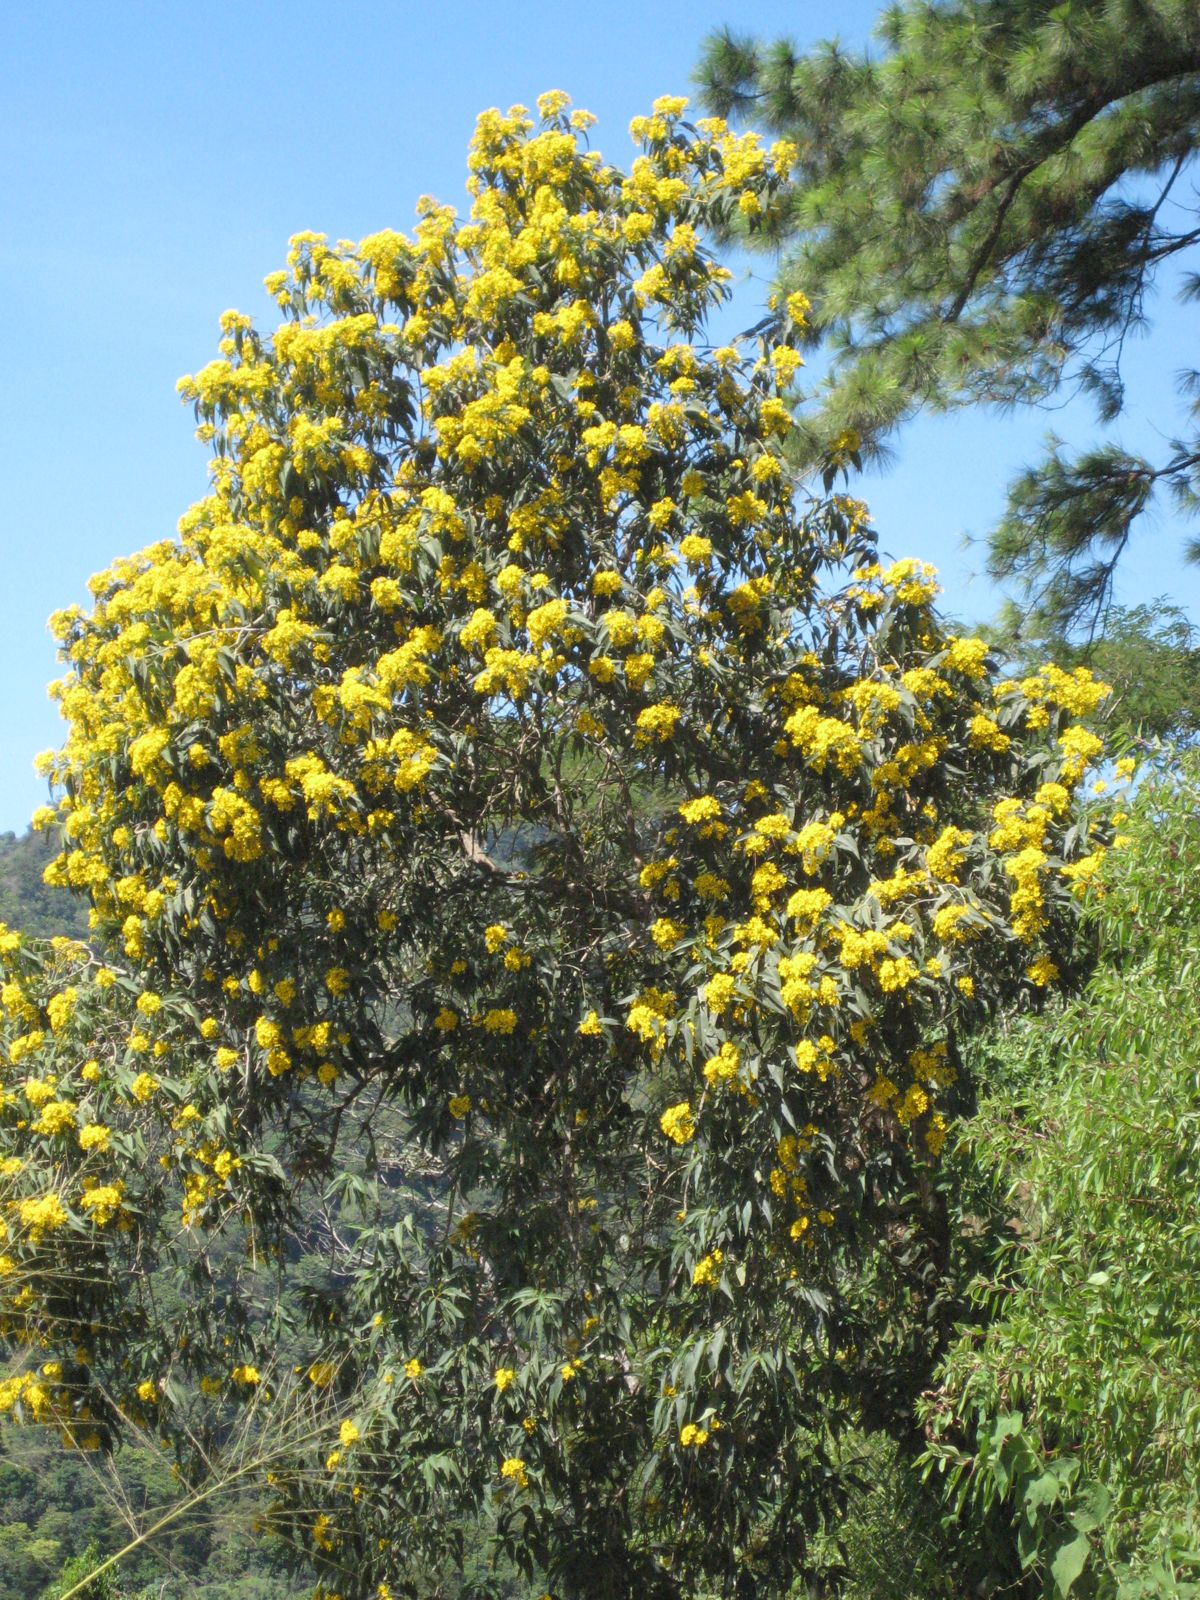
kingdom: Plantae
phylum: Tracheophyta
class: Magnoliopsida
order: Asterales
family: Asteraceae
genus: Perymenium
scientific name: Perymenium grande
